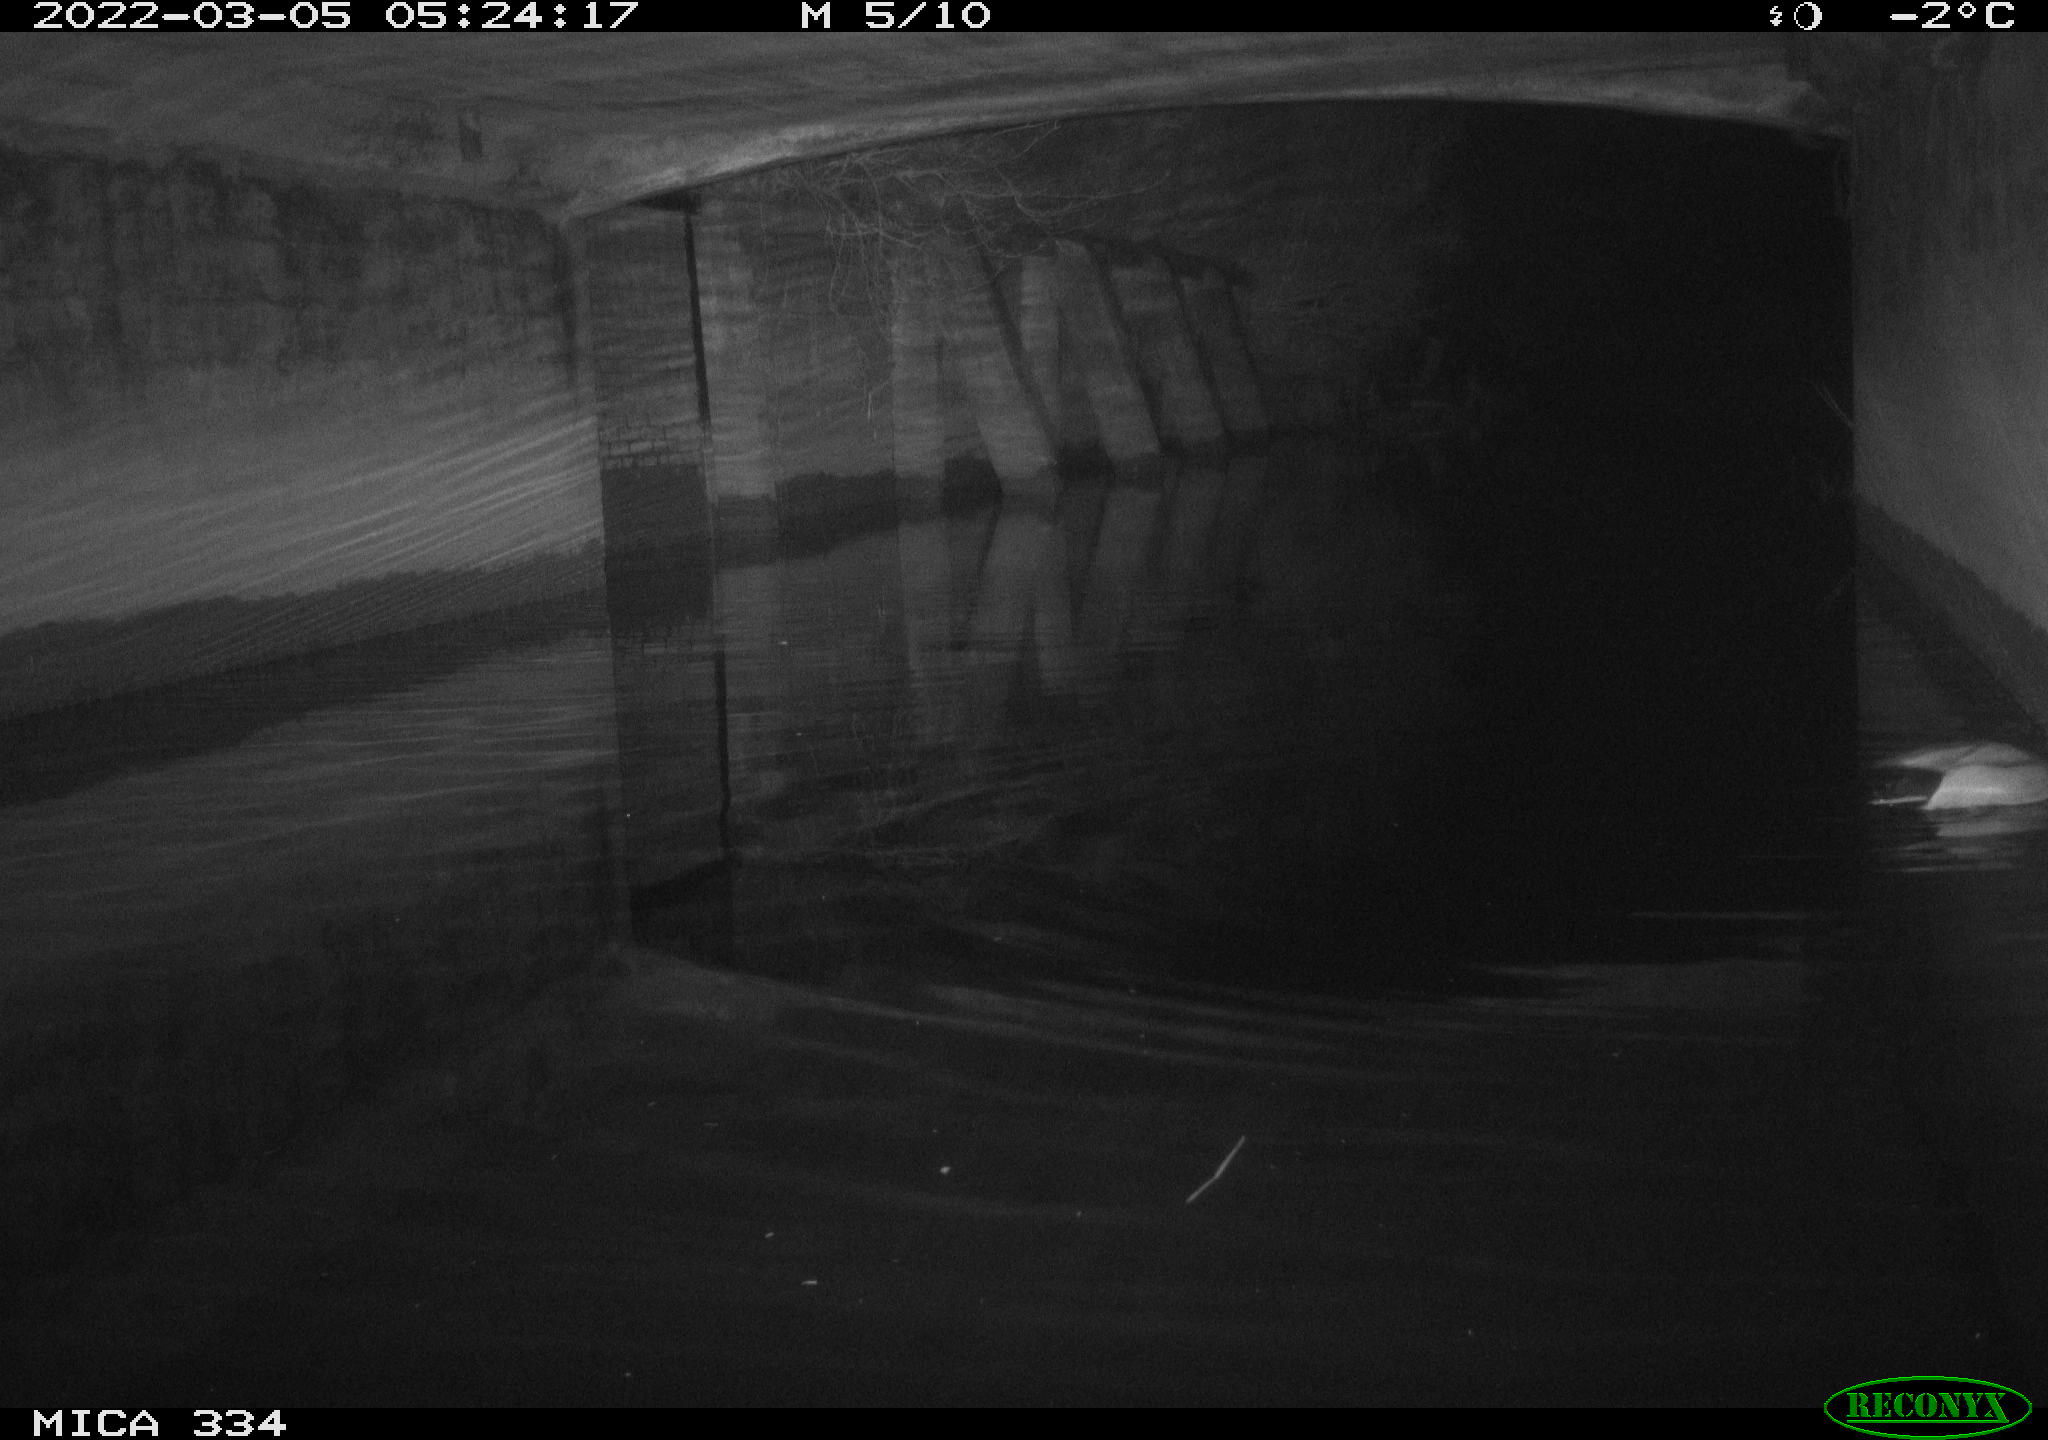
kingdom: Animalia
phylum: Chordata
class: Aves
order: Anseriformes
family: Anatidae
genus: Anas
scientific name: Anas platyrhynchos
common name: Mallard
